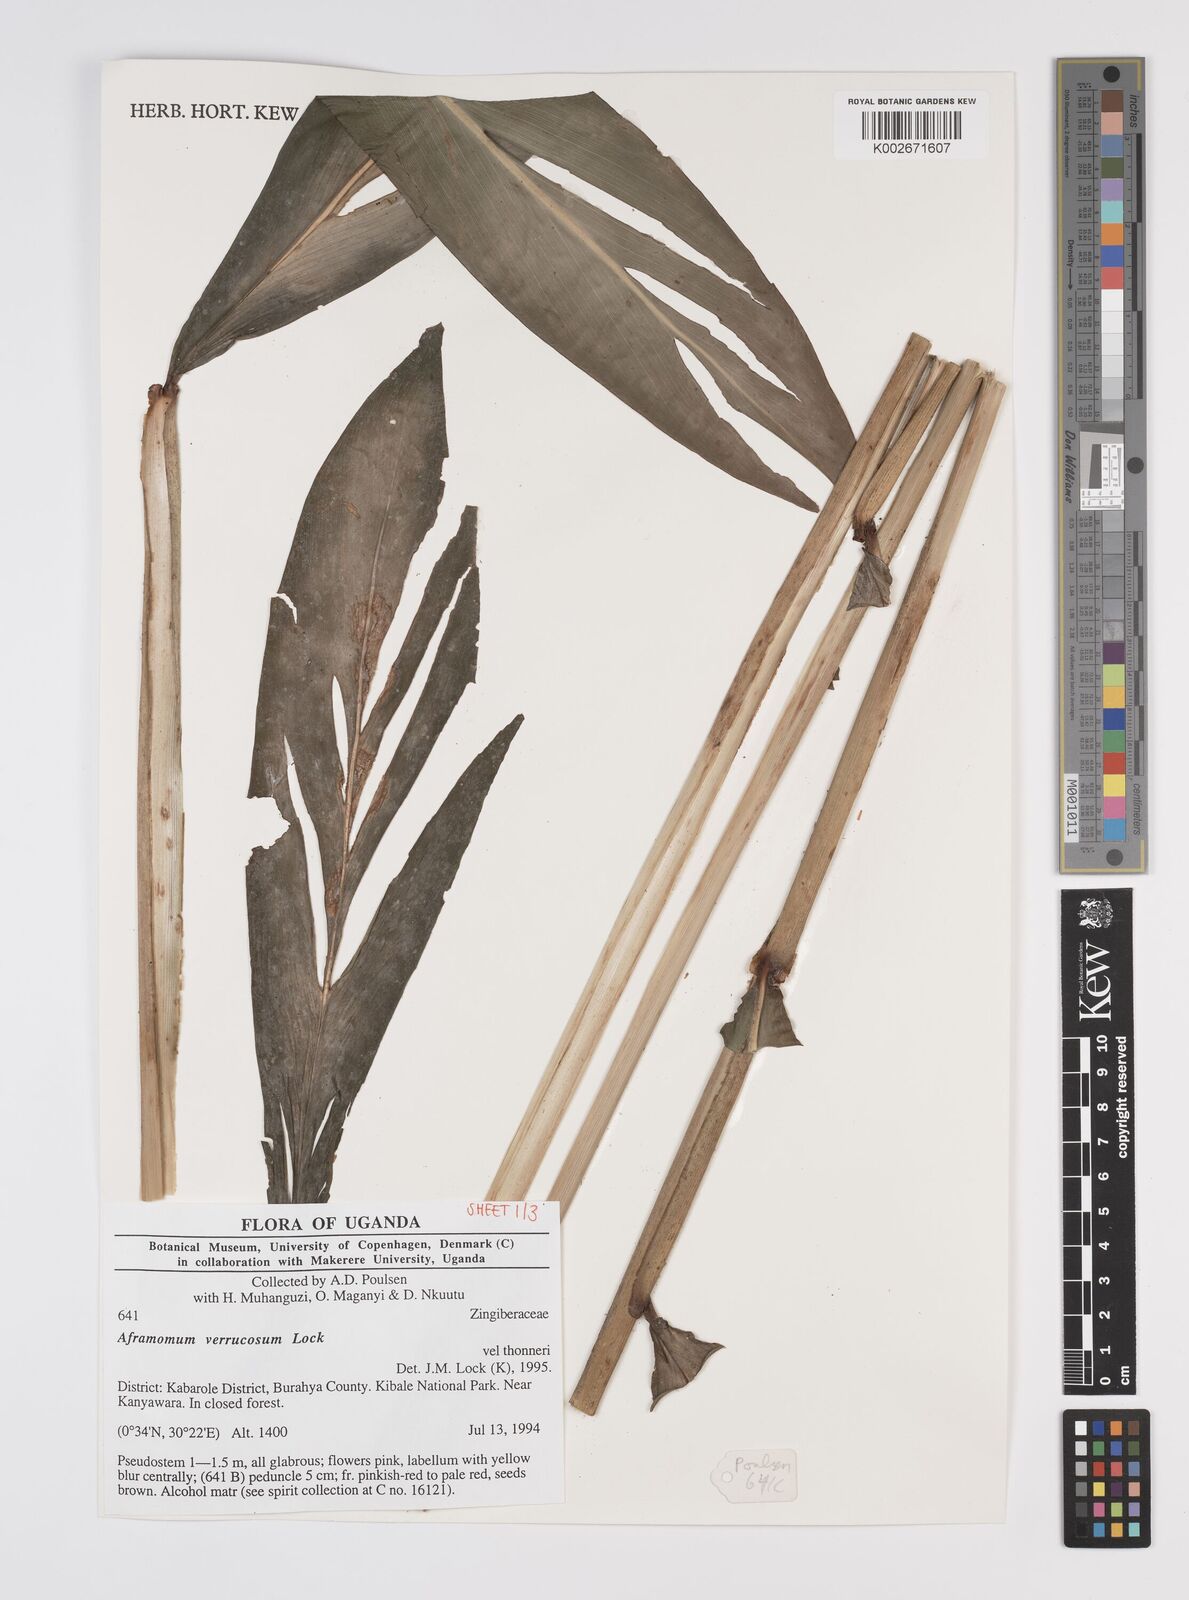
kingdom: Plantae
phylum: Tracheophyta
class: Liliopsida
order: Zingiberales
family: Zingiberaceae
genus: Aframomum
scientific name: Aframomum verrucosum
